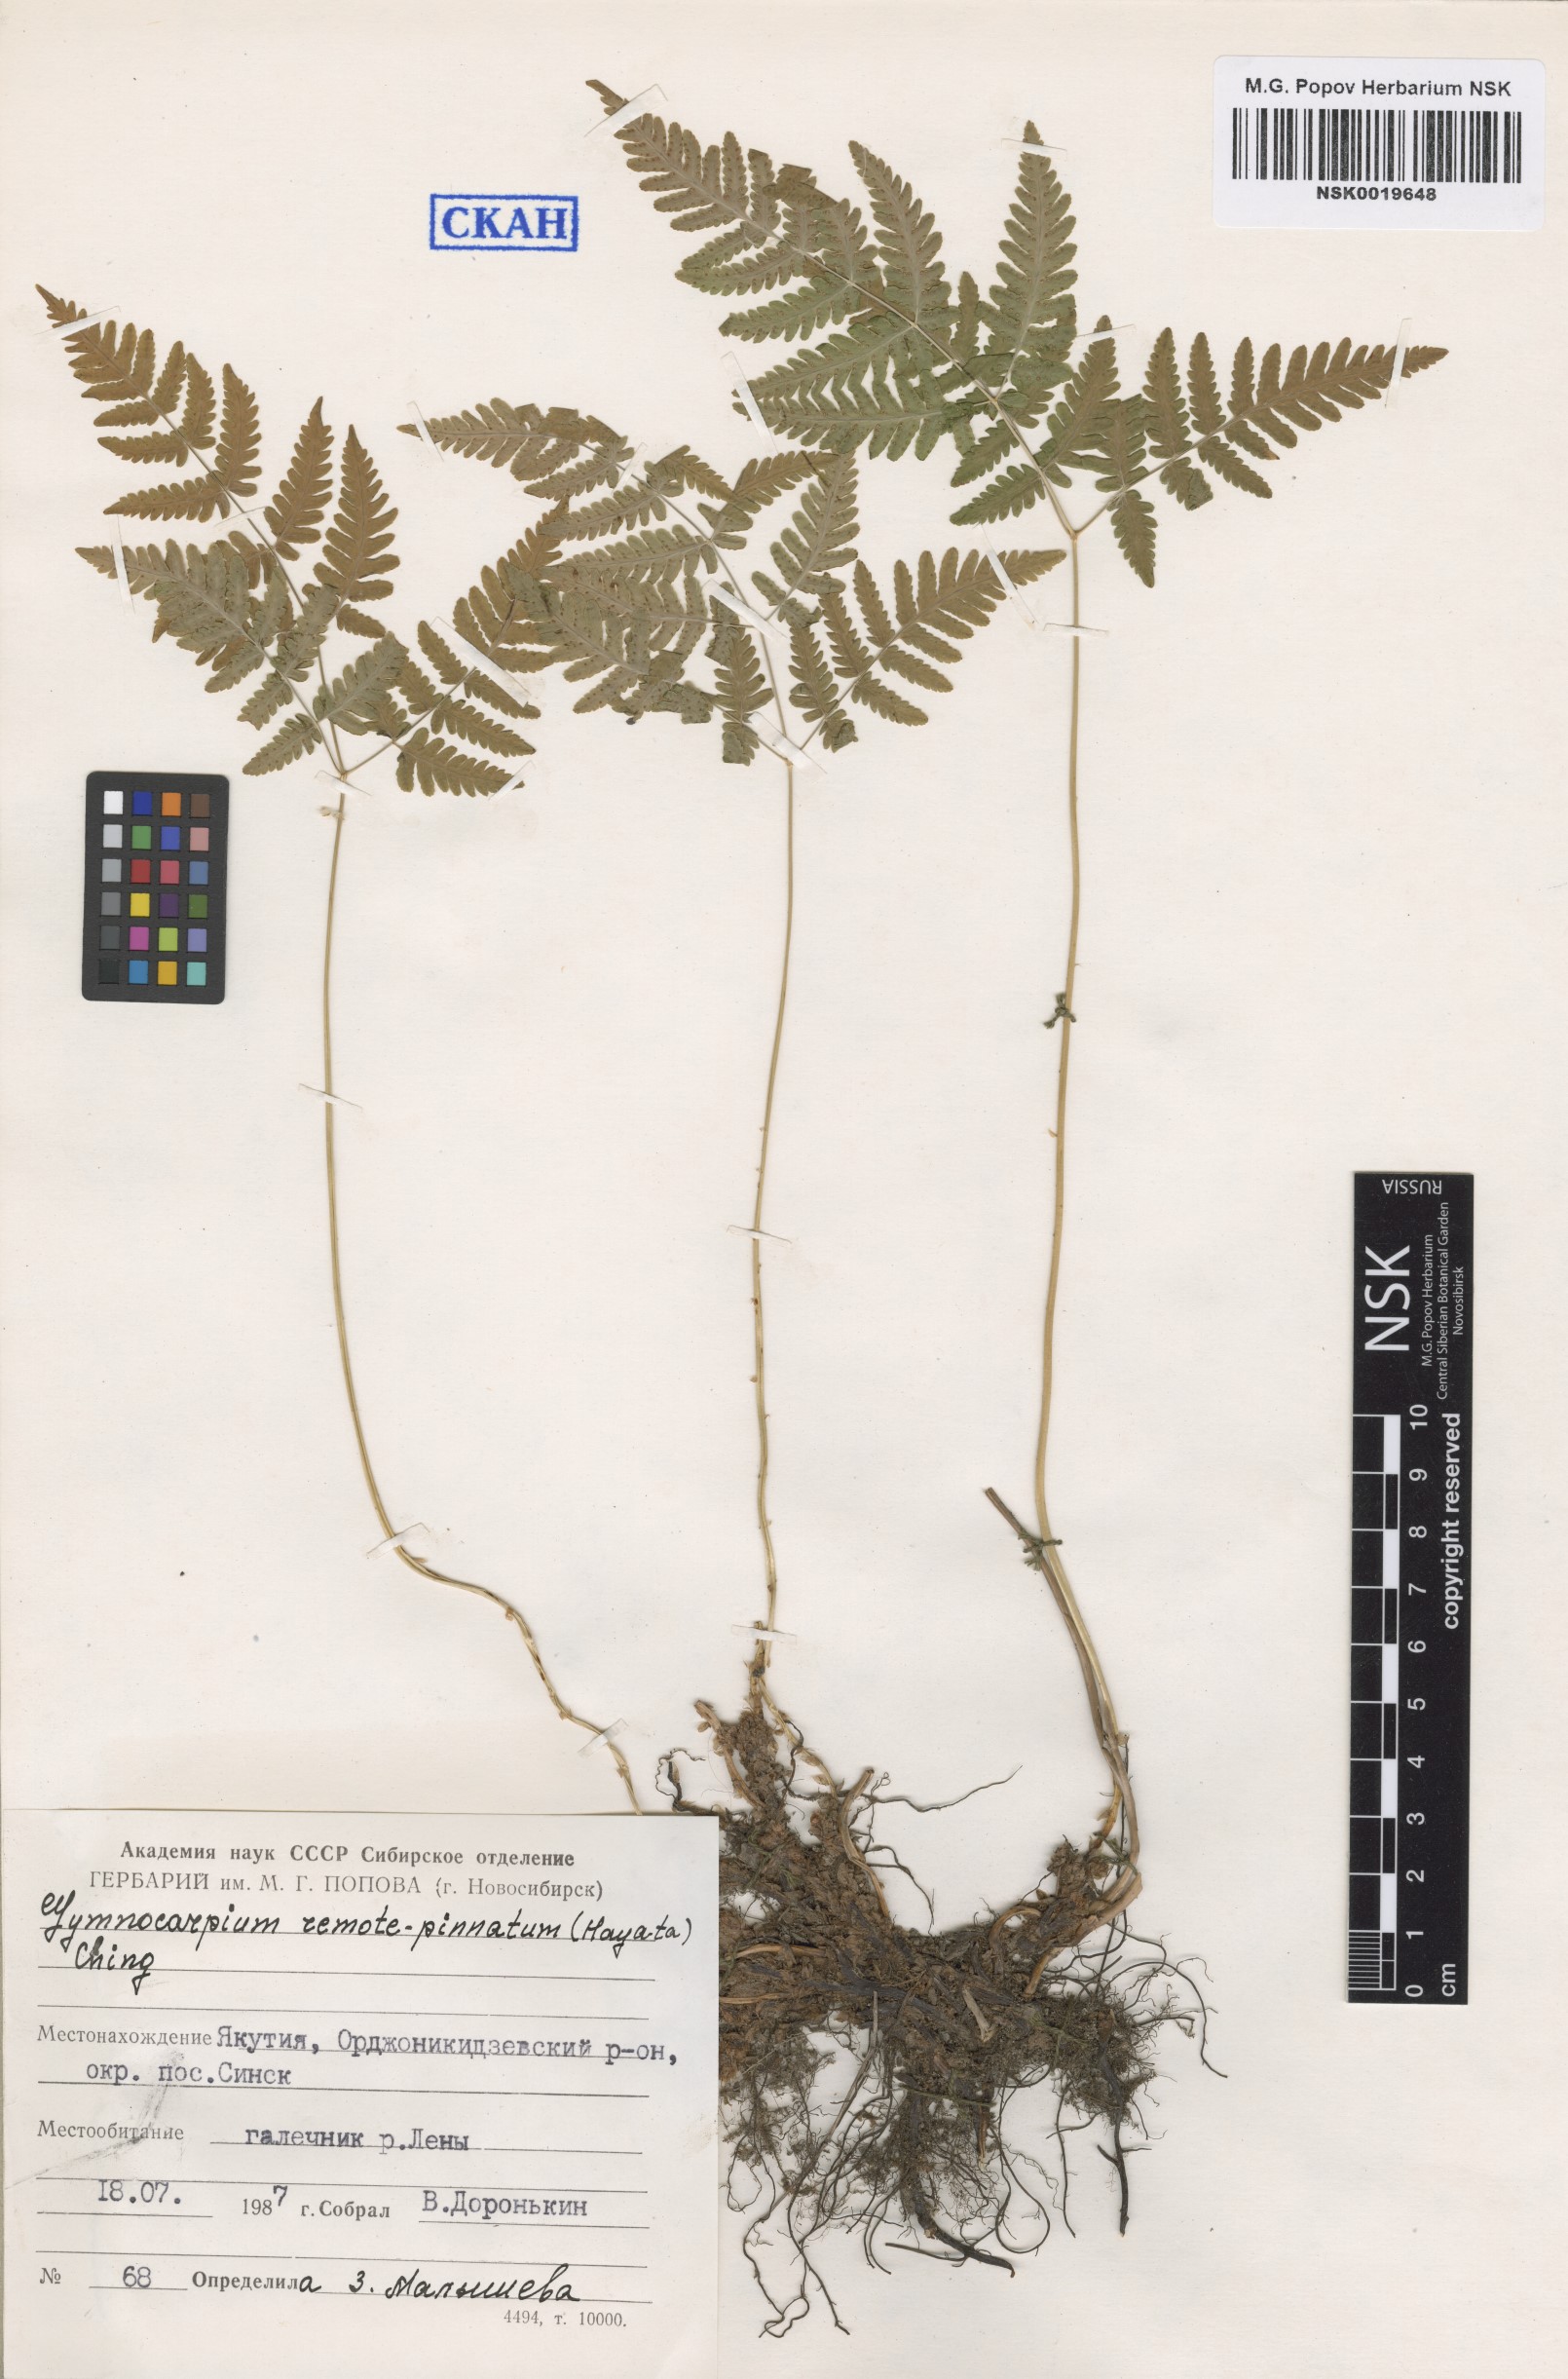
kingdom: Plantae
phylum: Tracheophyta
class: Polypodiopsida
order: Polypodiales
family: Cystopteridaceae
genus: Gymnocarpium
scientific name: Gymnocarpium remotepinnatum
